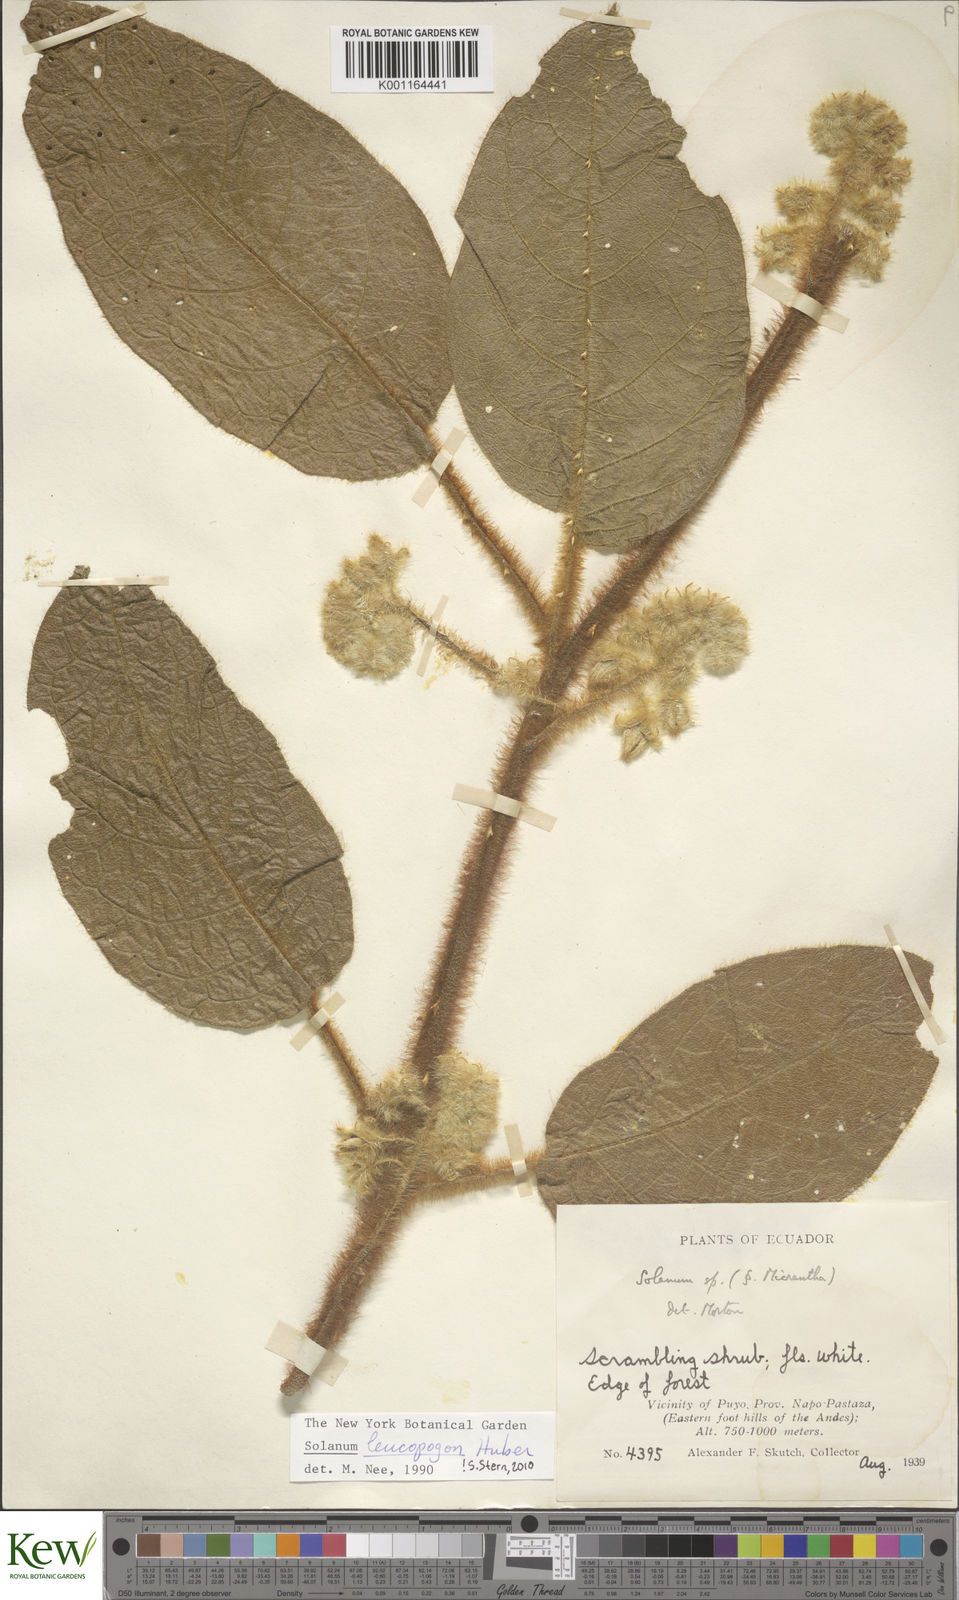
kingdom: Plantae
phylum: Tracheophyta
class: Magnoliopsida
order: Solanales
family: Solanaceae
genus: Solanum
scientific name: Solanum leucopogon
